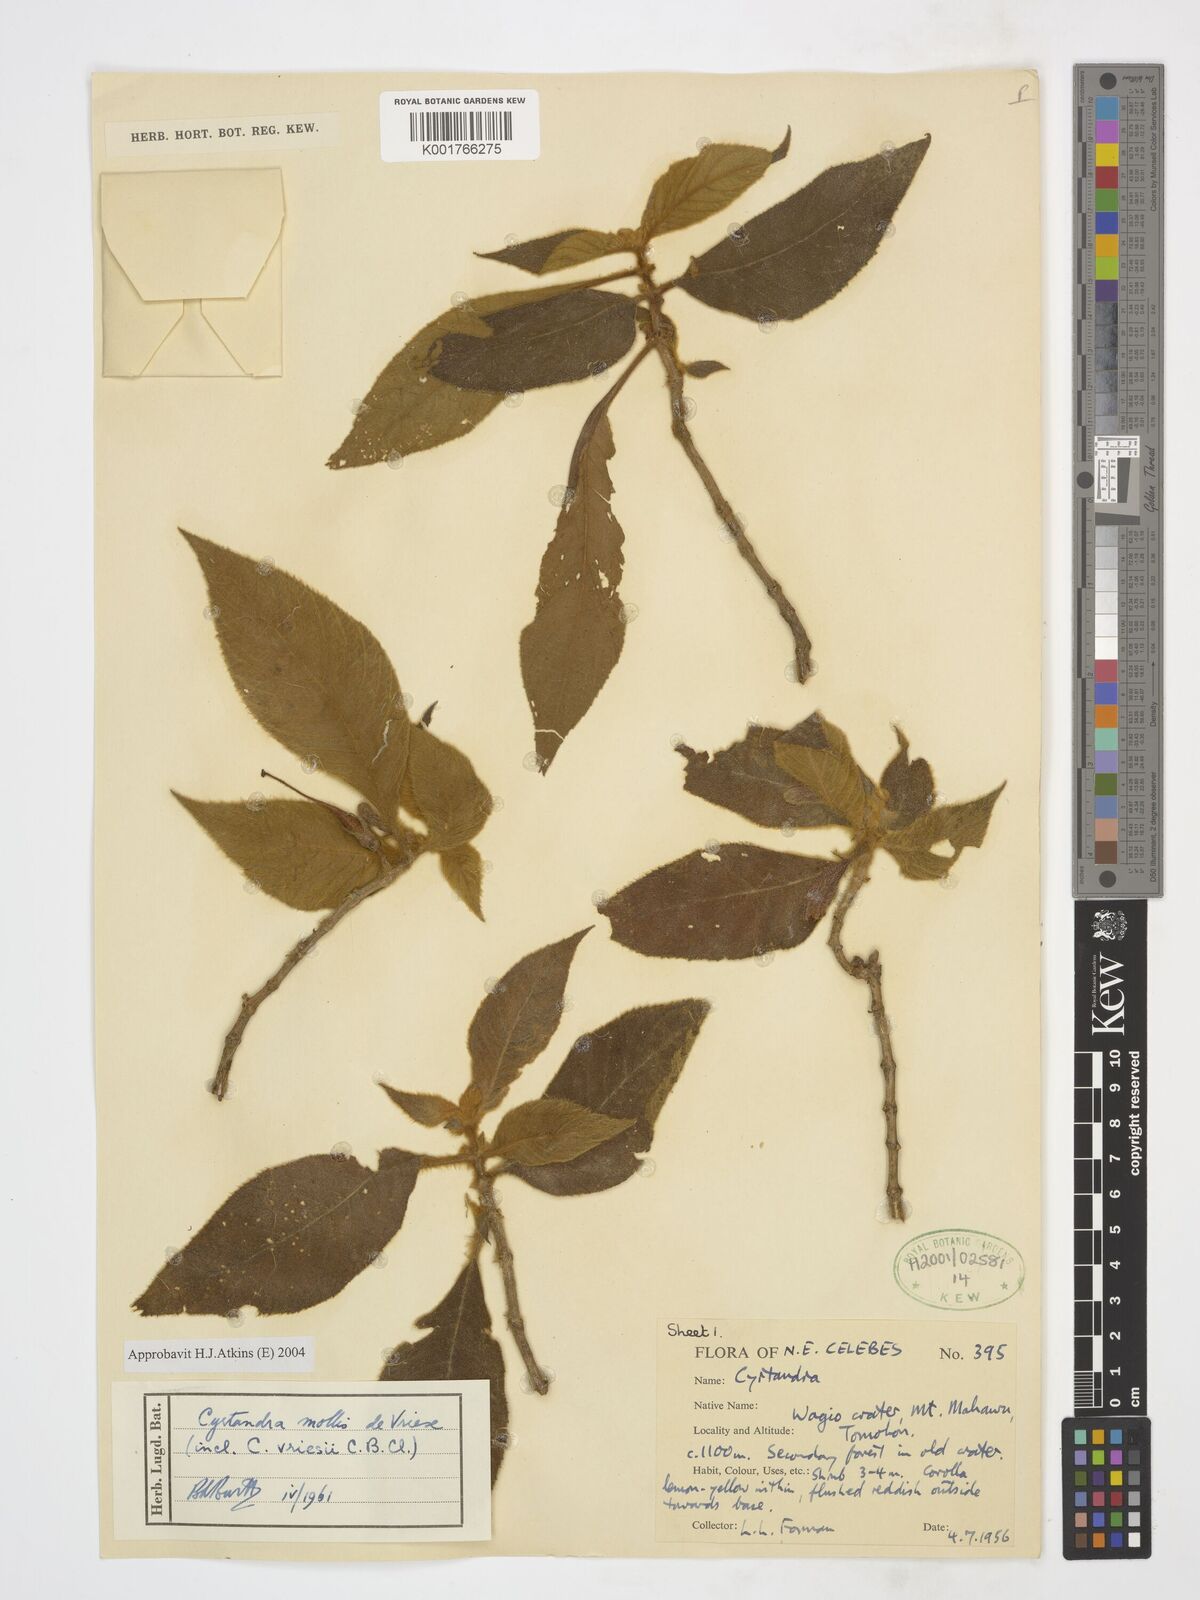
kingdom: Plantae
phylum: Tracheophyta
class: Magnoliopsida
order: Lamiales
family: Gesneriaceae
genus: Cyrtandra
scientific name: Cyrtandra mollis
